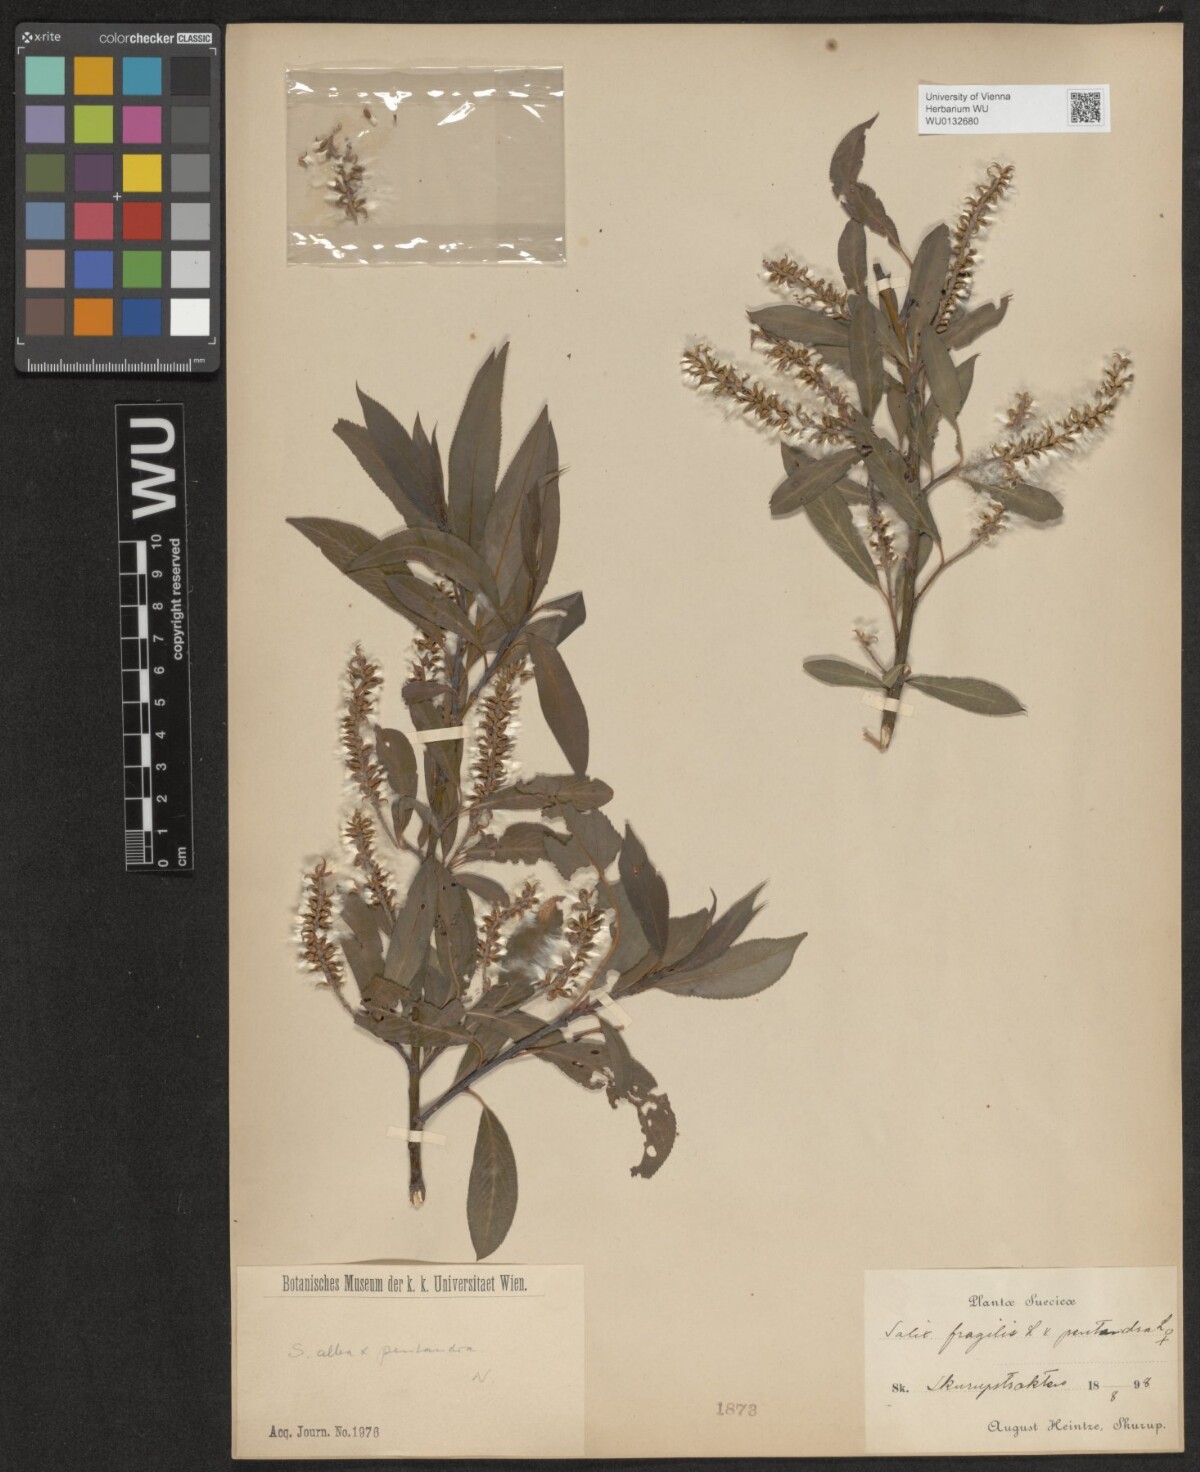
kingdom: Plantae
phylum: Tracheophyta
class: Magnoliopsida
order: Malpighiales
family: Salicaceae
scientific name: Salicaceae
